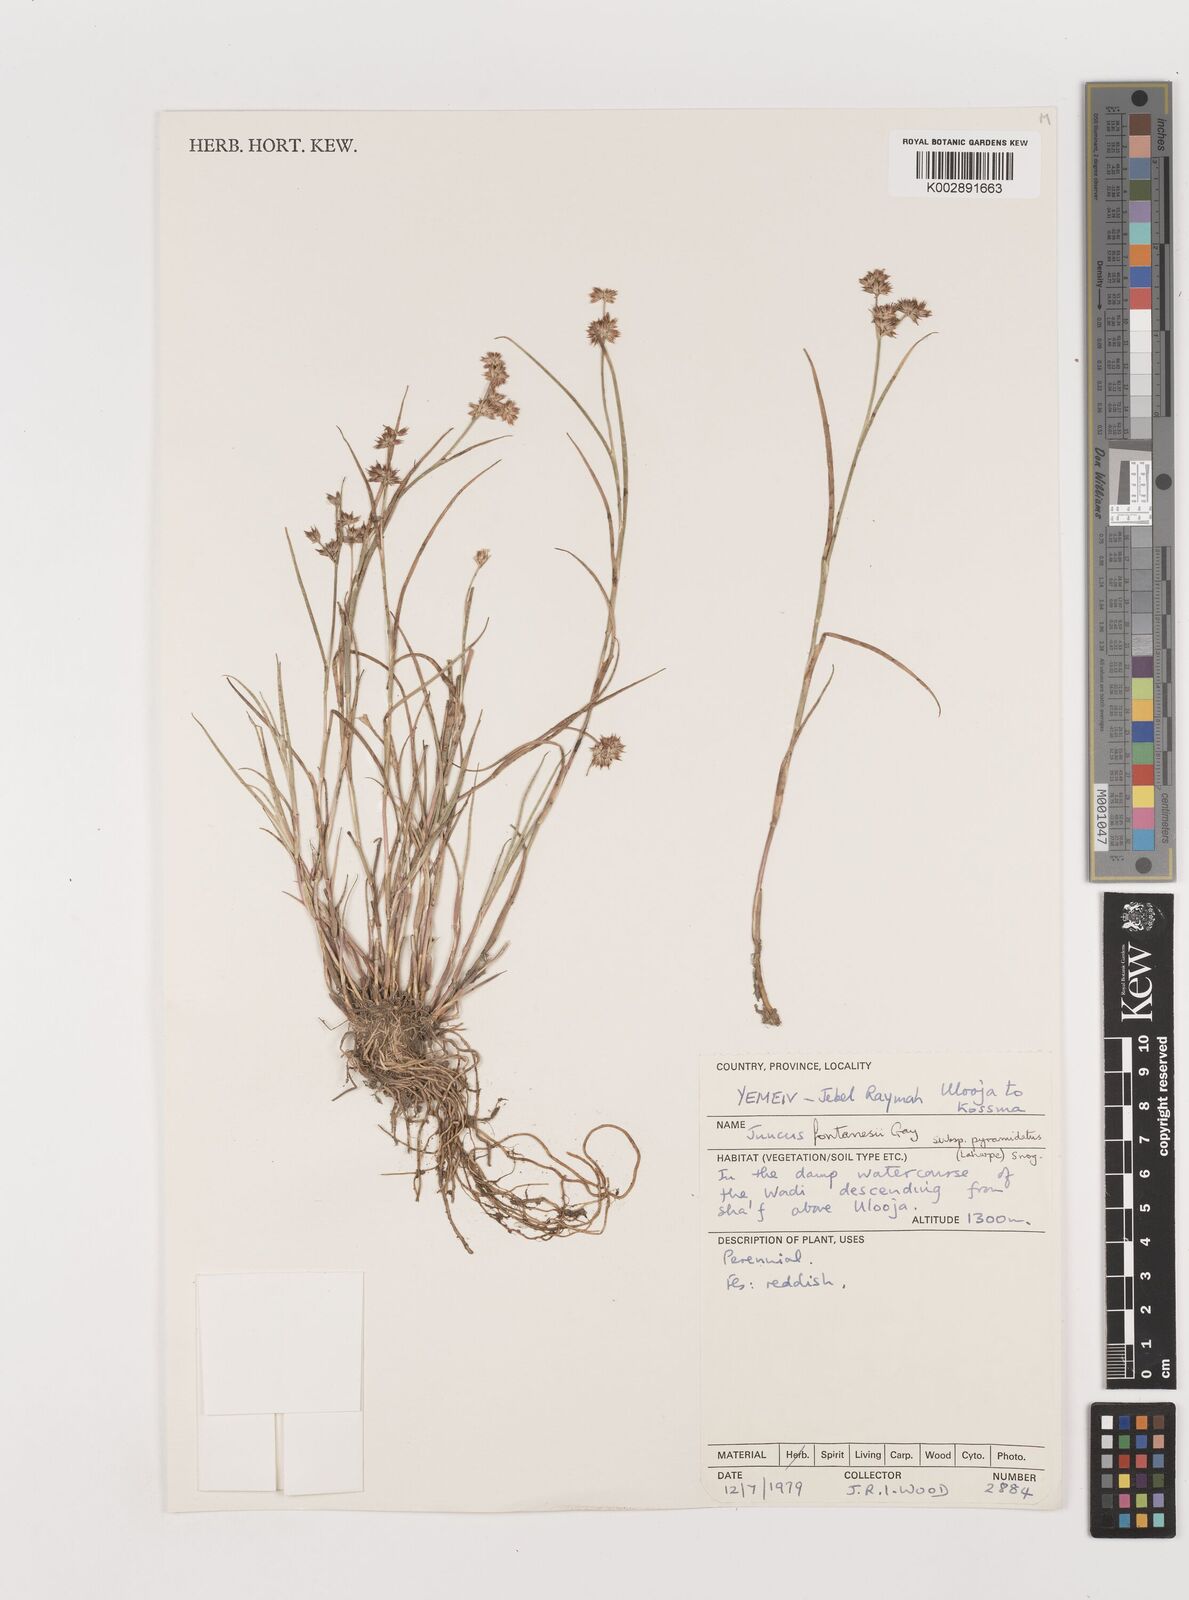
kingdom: Plantae
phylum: Tracheophyta
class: Liliopsida
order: Poales
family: Juncaceae
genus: Juncus
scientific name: Juncus fontanesii
